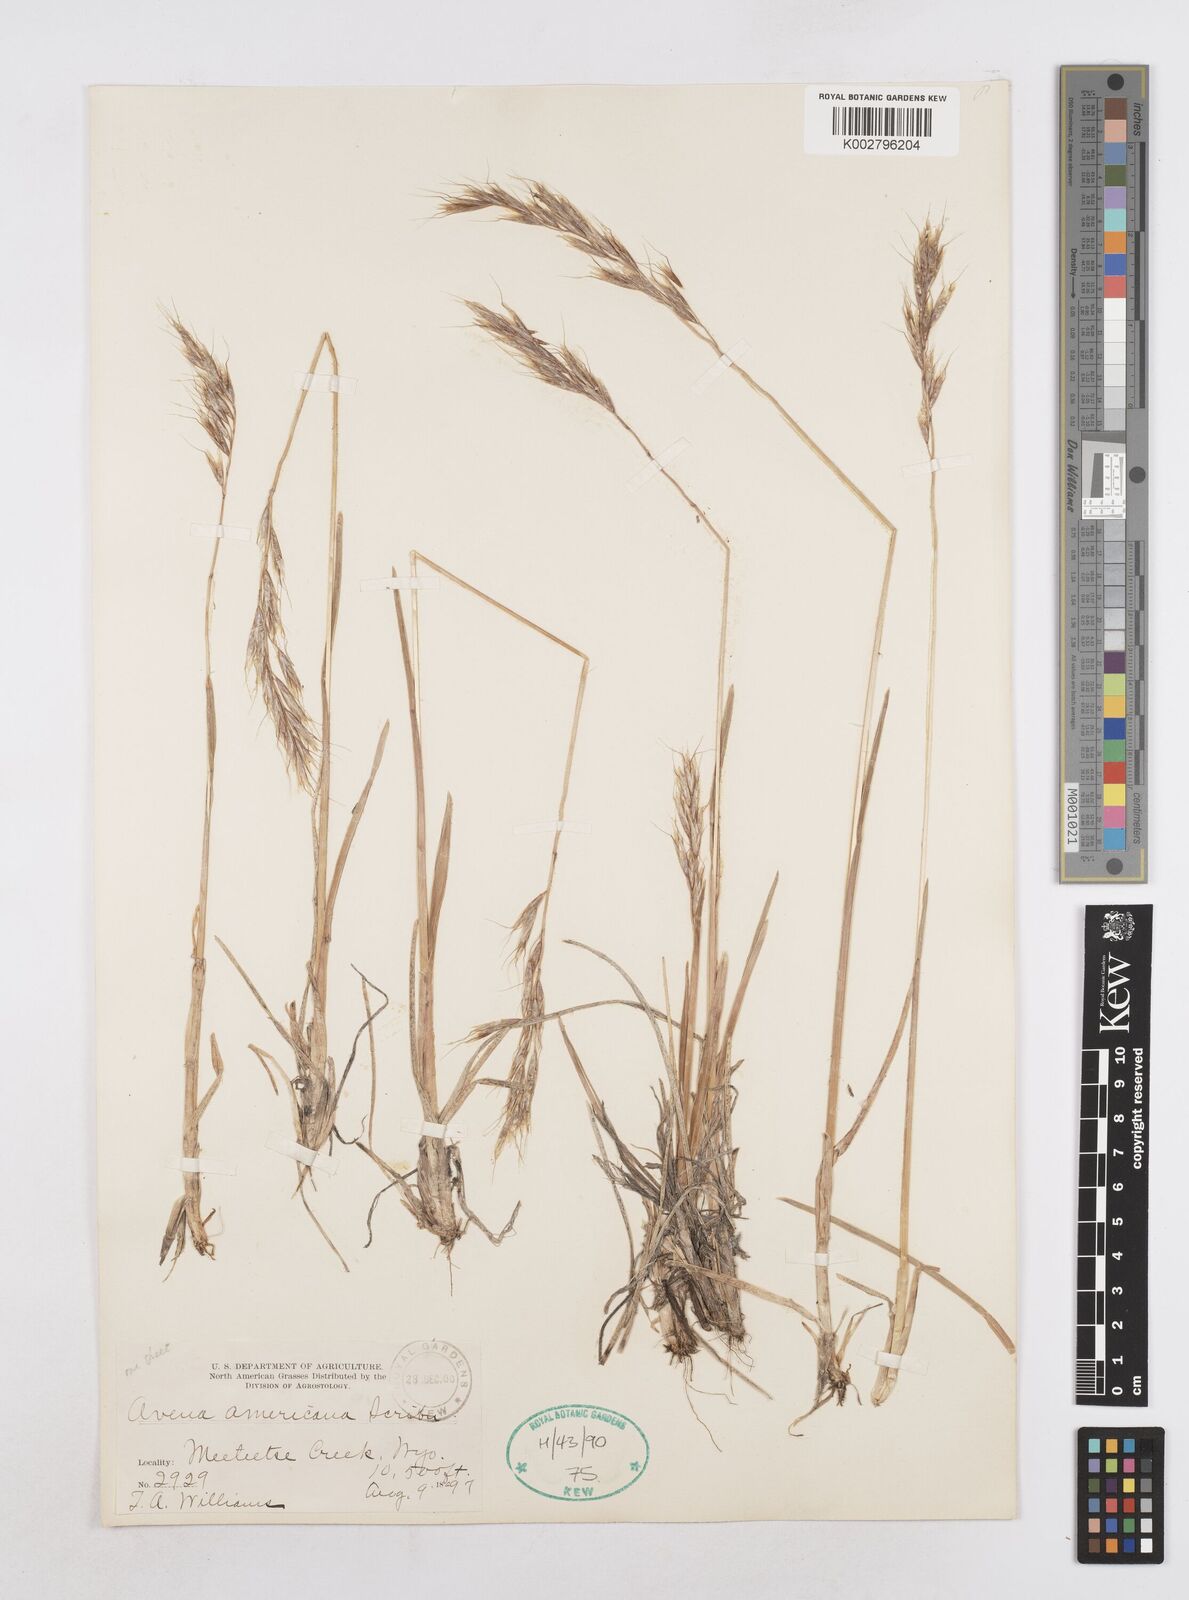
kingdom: Plantae
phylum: Tracheophyta
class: Liliopsida
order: Poales
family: Poaceae
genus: Helictotrichon
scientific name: Helictotrichon
